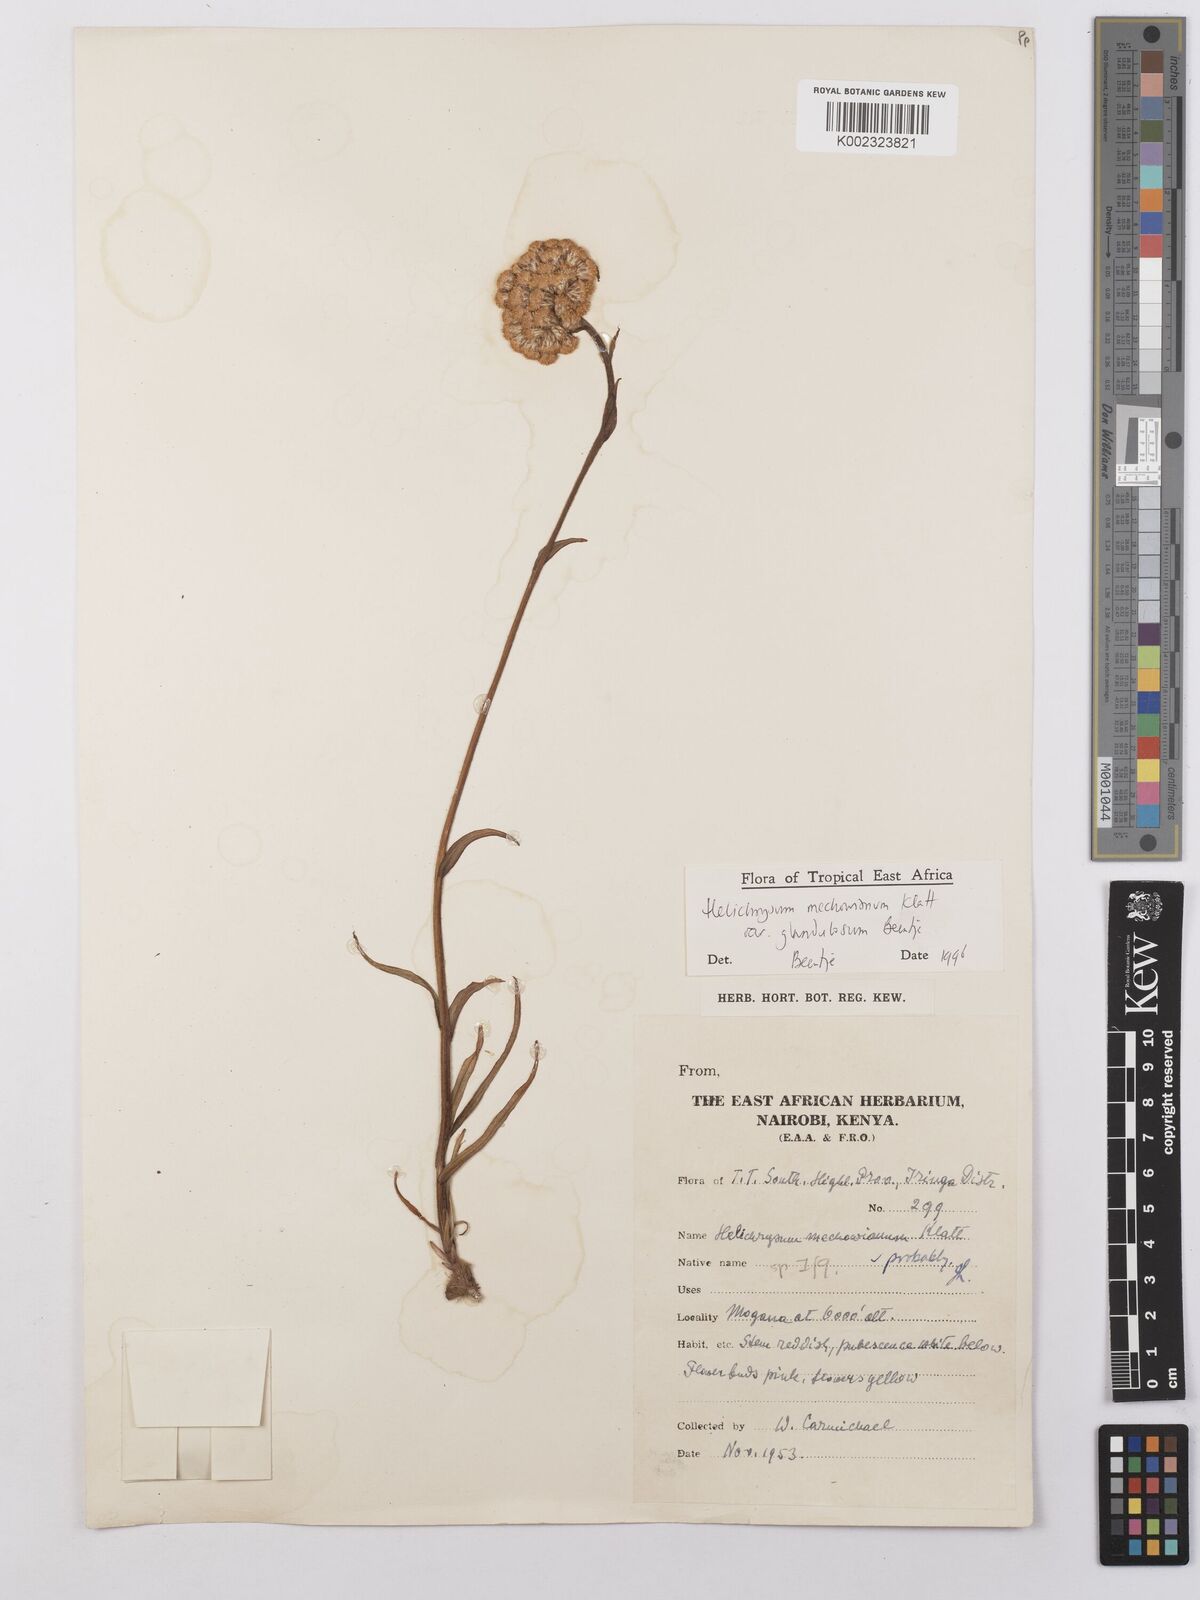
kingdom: Plantae
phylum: Tracheophyta
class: Magnoliopsida
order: Asterales
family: Asteraceae
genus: Helichrysum
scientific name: Helichrysum mechowianum
